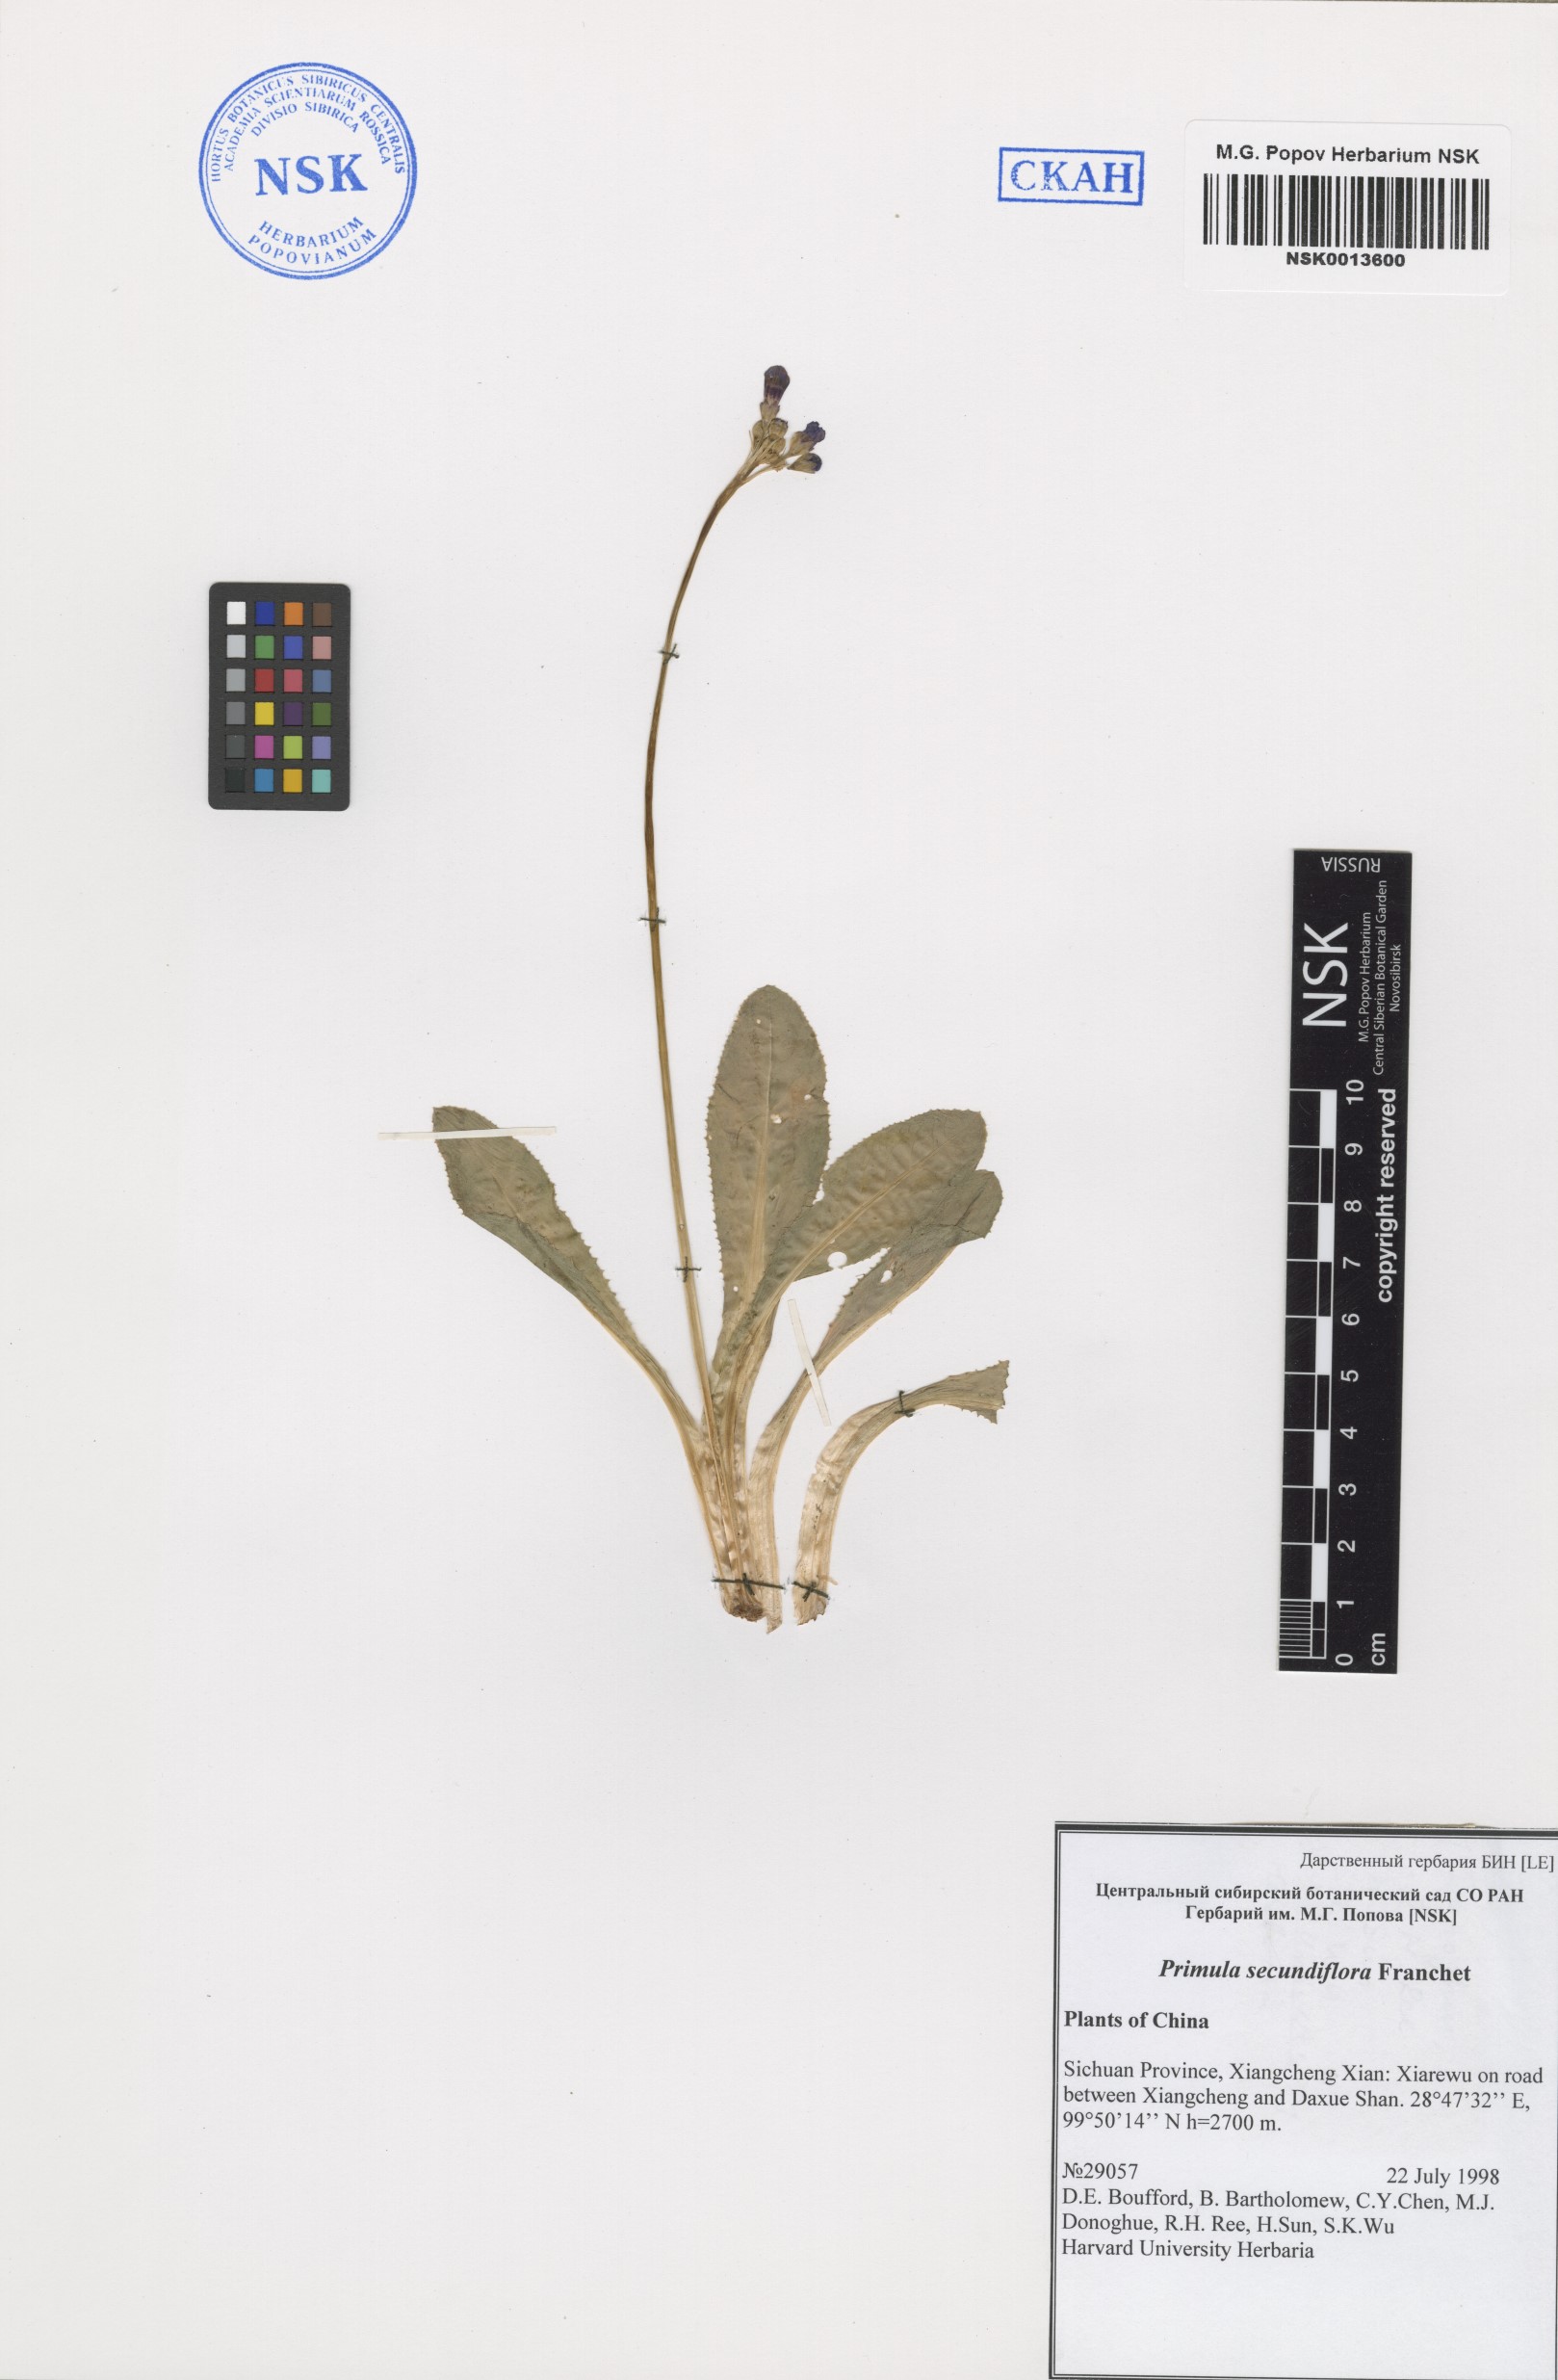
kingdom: Plantae
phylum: Tracheophyta
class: Magnoliopsida
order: Ericales
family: Primulaceae
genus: Primula
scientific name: Primula secundiflora
